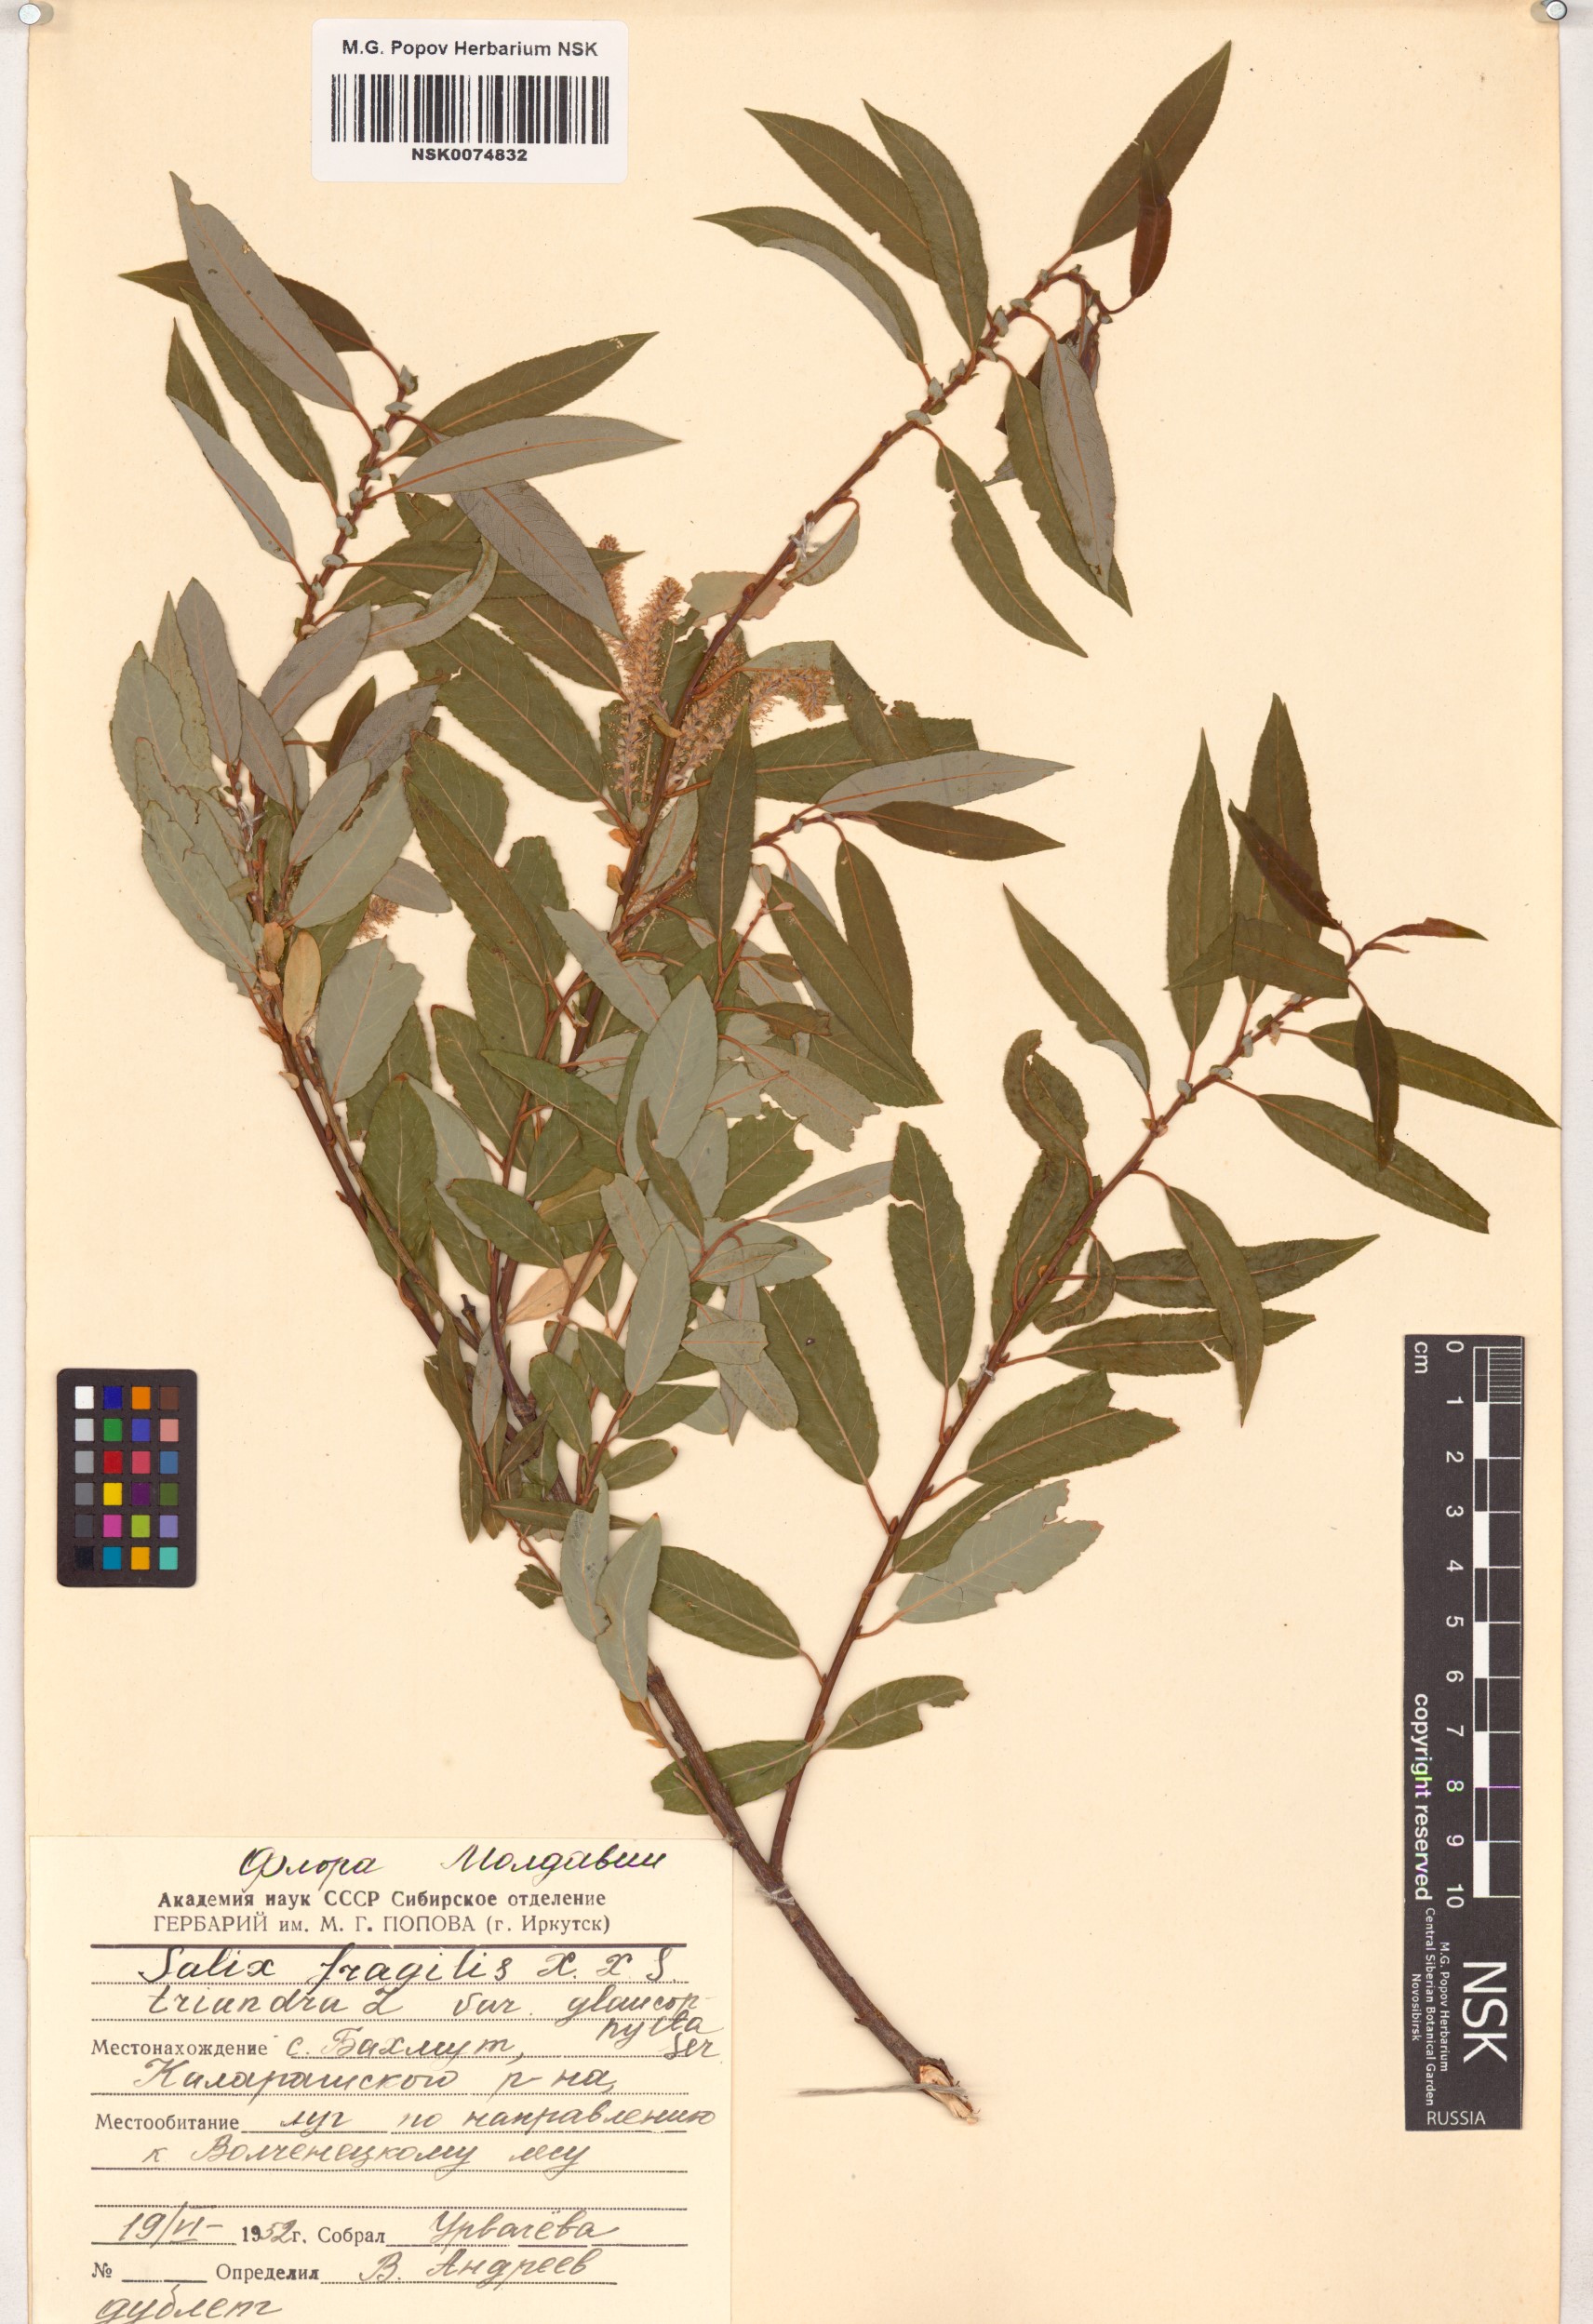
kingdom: Plantae
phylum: Tracheophyta
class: Magnoliopsida
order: Malpighiales
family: Salicaceae
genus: Salix
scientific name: Salix
